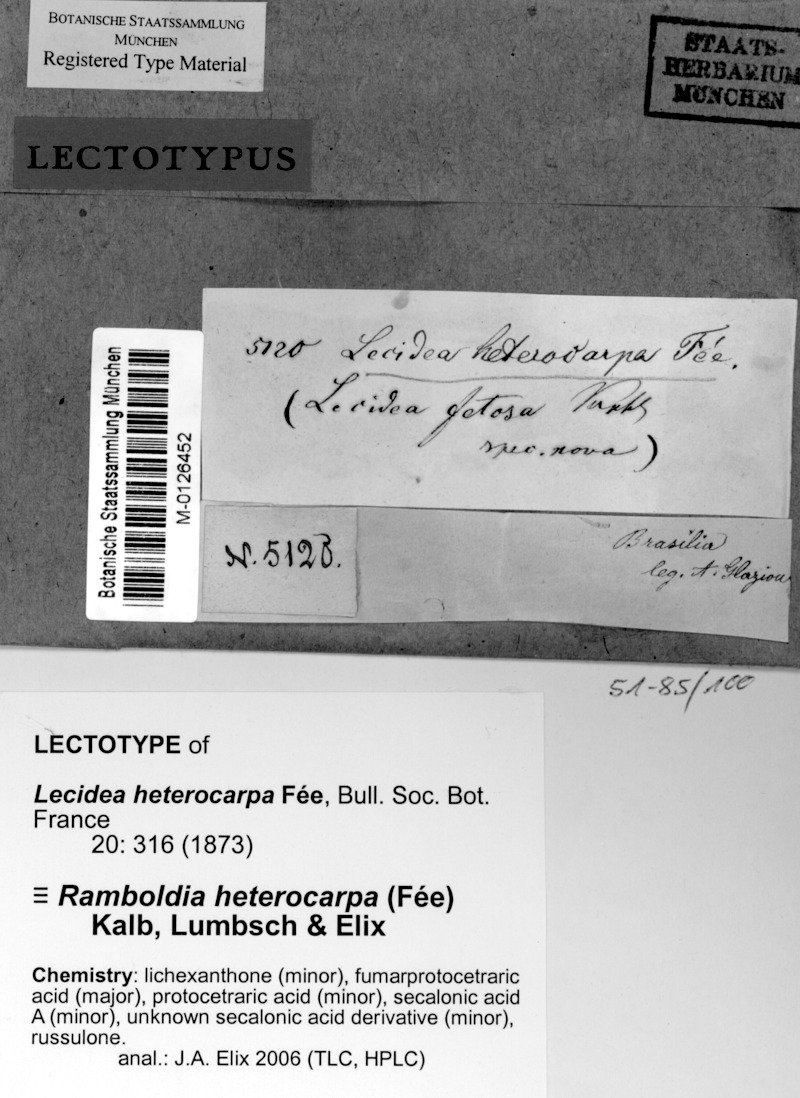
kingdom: Fungi
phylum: Ascomycota
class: Lecanoromycetes
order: Lecanorales
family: Ramboldiaceae
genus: Ramboldia
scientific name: Ramboldia heterocarpa
